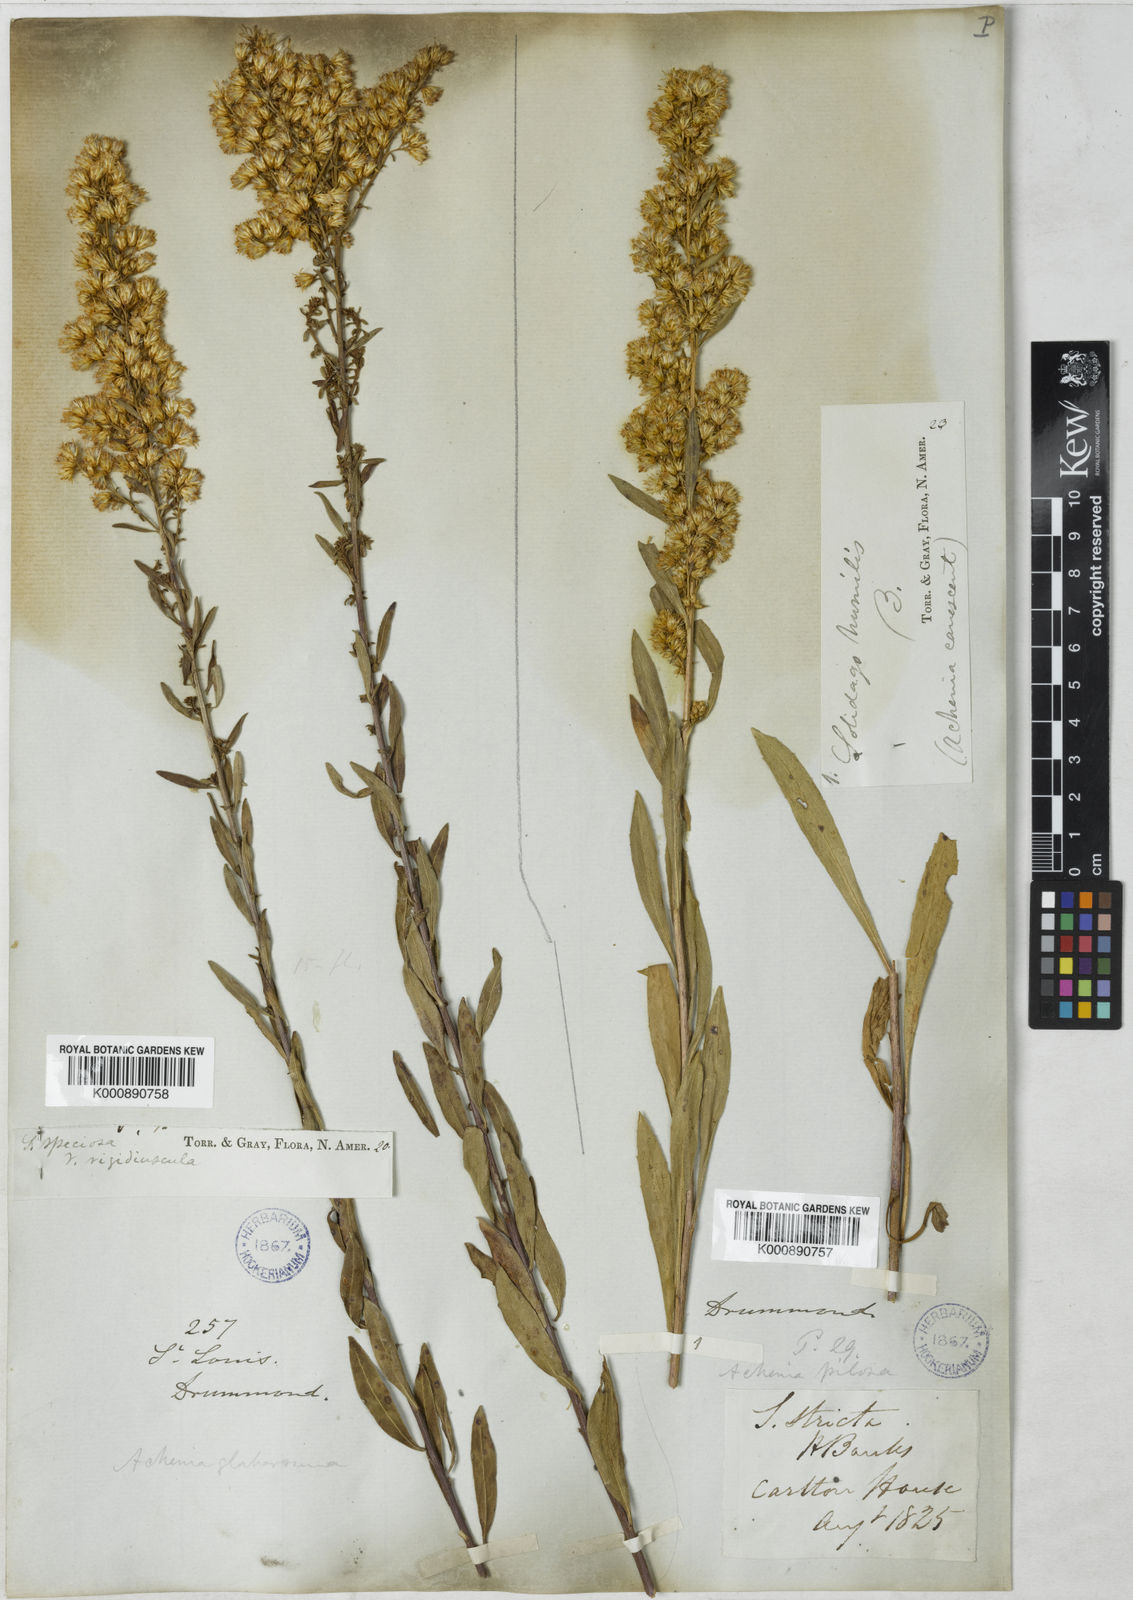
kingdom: Plantae
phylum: Tracheophyta
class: Magnoliopsida
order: Asterales
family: Asteraceae
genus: Solidago
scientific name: Solidago rigidiuscula
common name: Stiff-leaved showy goldenrod
